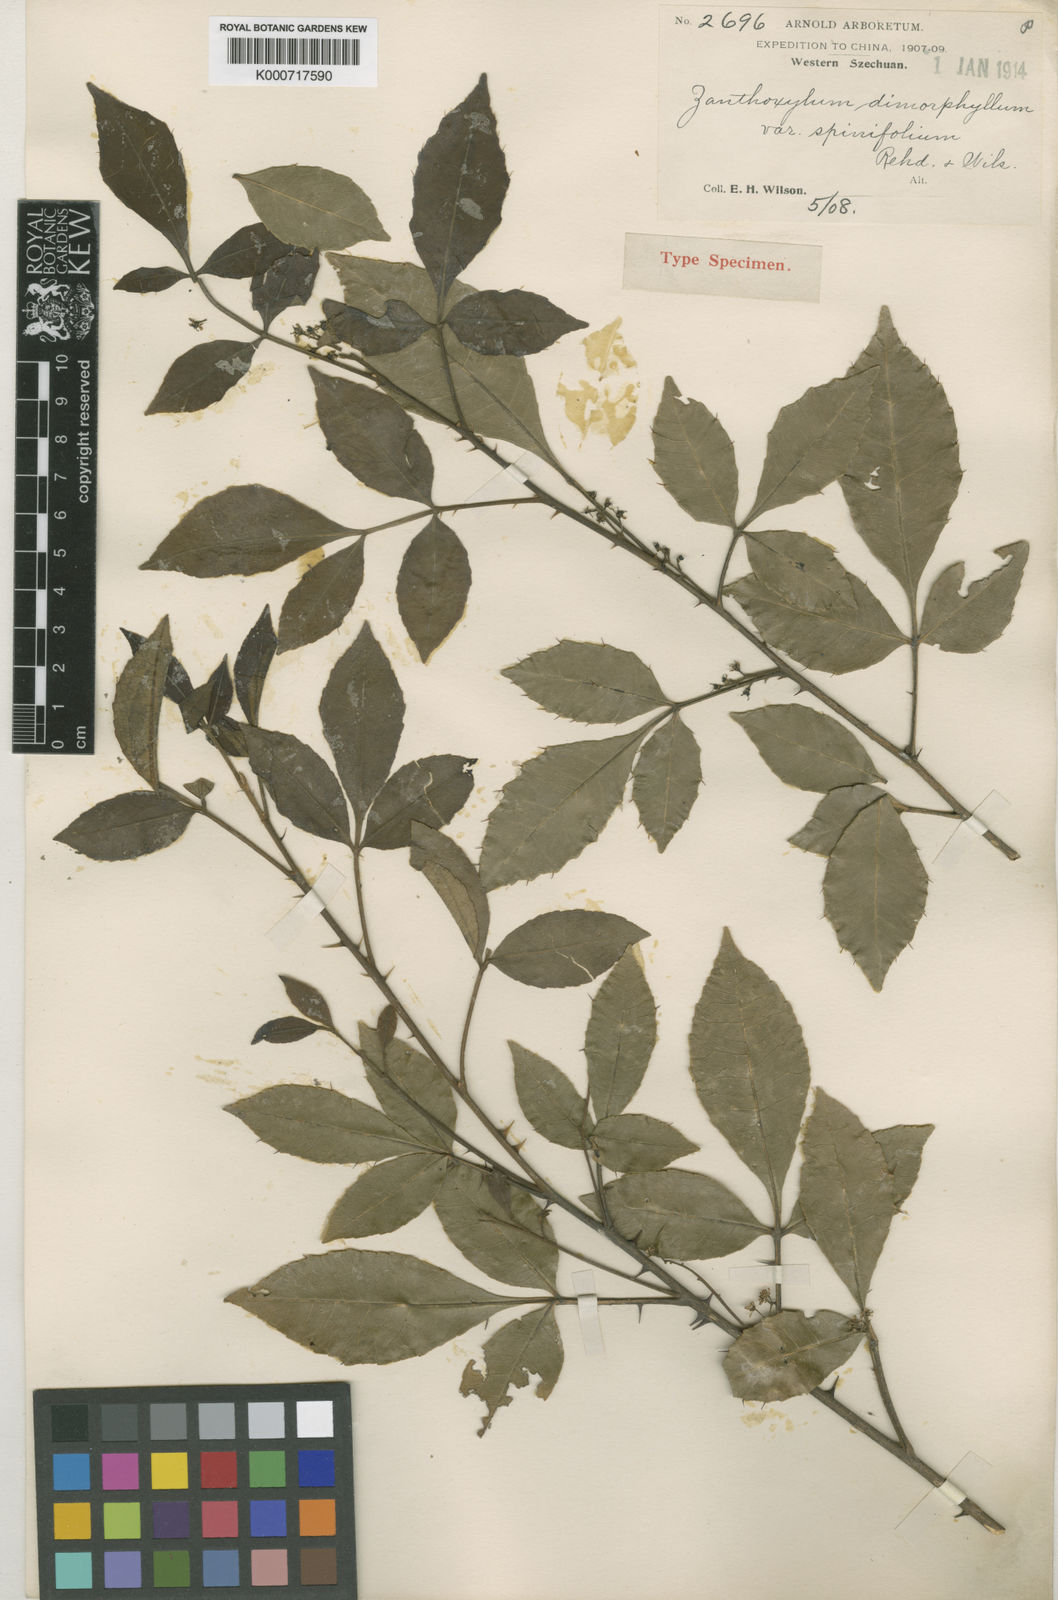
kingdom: Plantae
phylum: Tracheophyta
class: Magnoliopsida
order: Sapindales
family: Rutaceae
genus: Zanthoxylum
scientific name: Zanthoxylum dimorphophyllum
